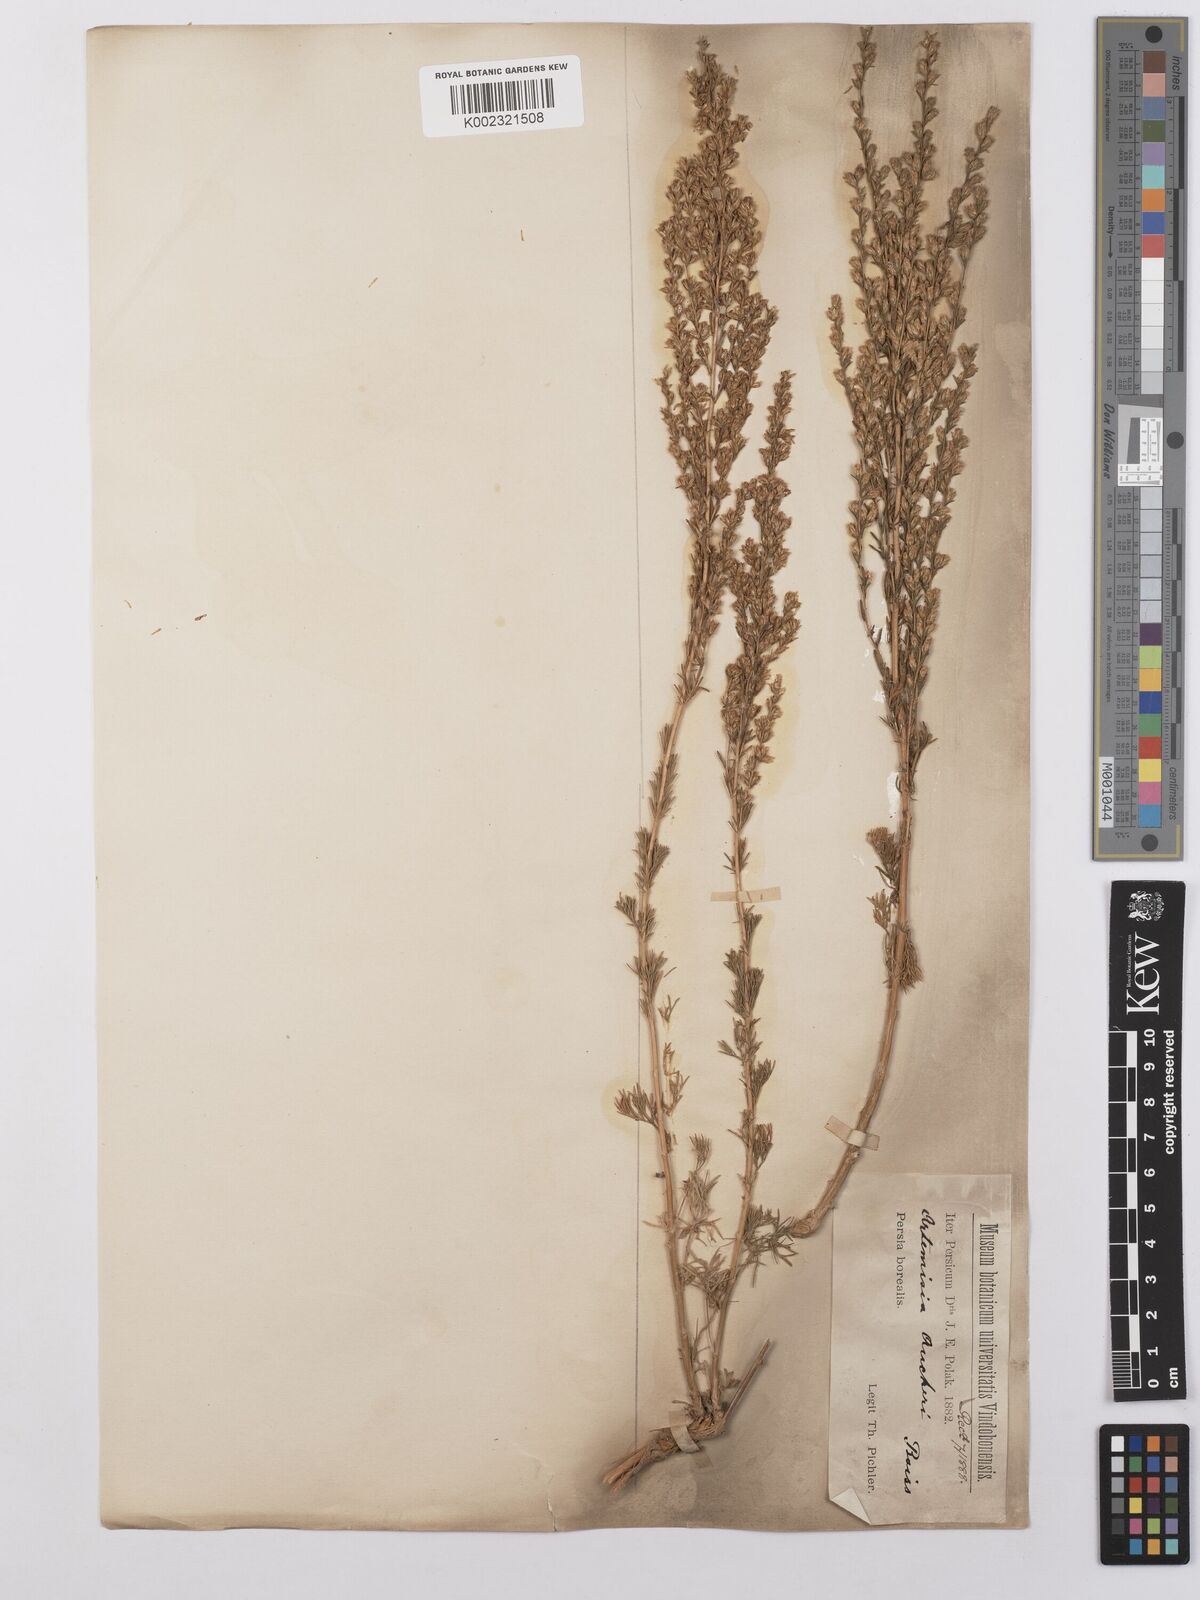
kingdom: Plantae
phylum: Tracheophyta
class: Magnoliopsida
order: Asterales
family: Asteraceae
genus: Artemisia
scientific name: Artemisia aucheri
